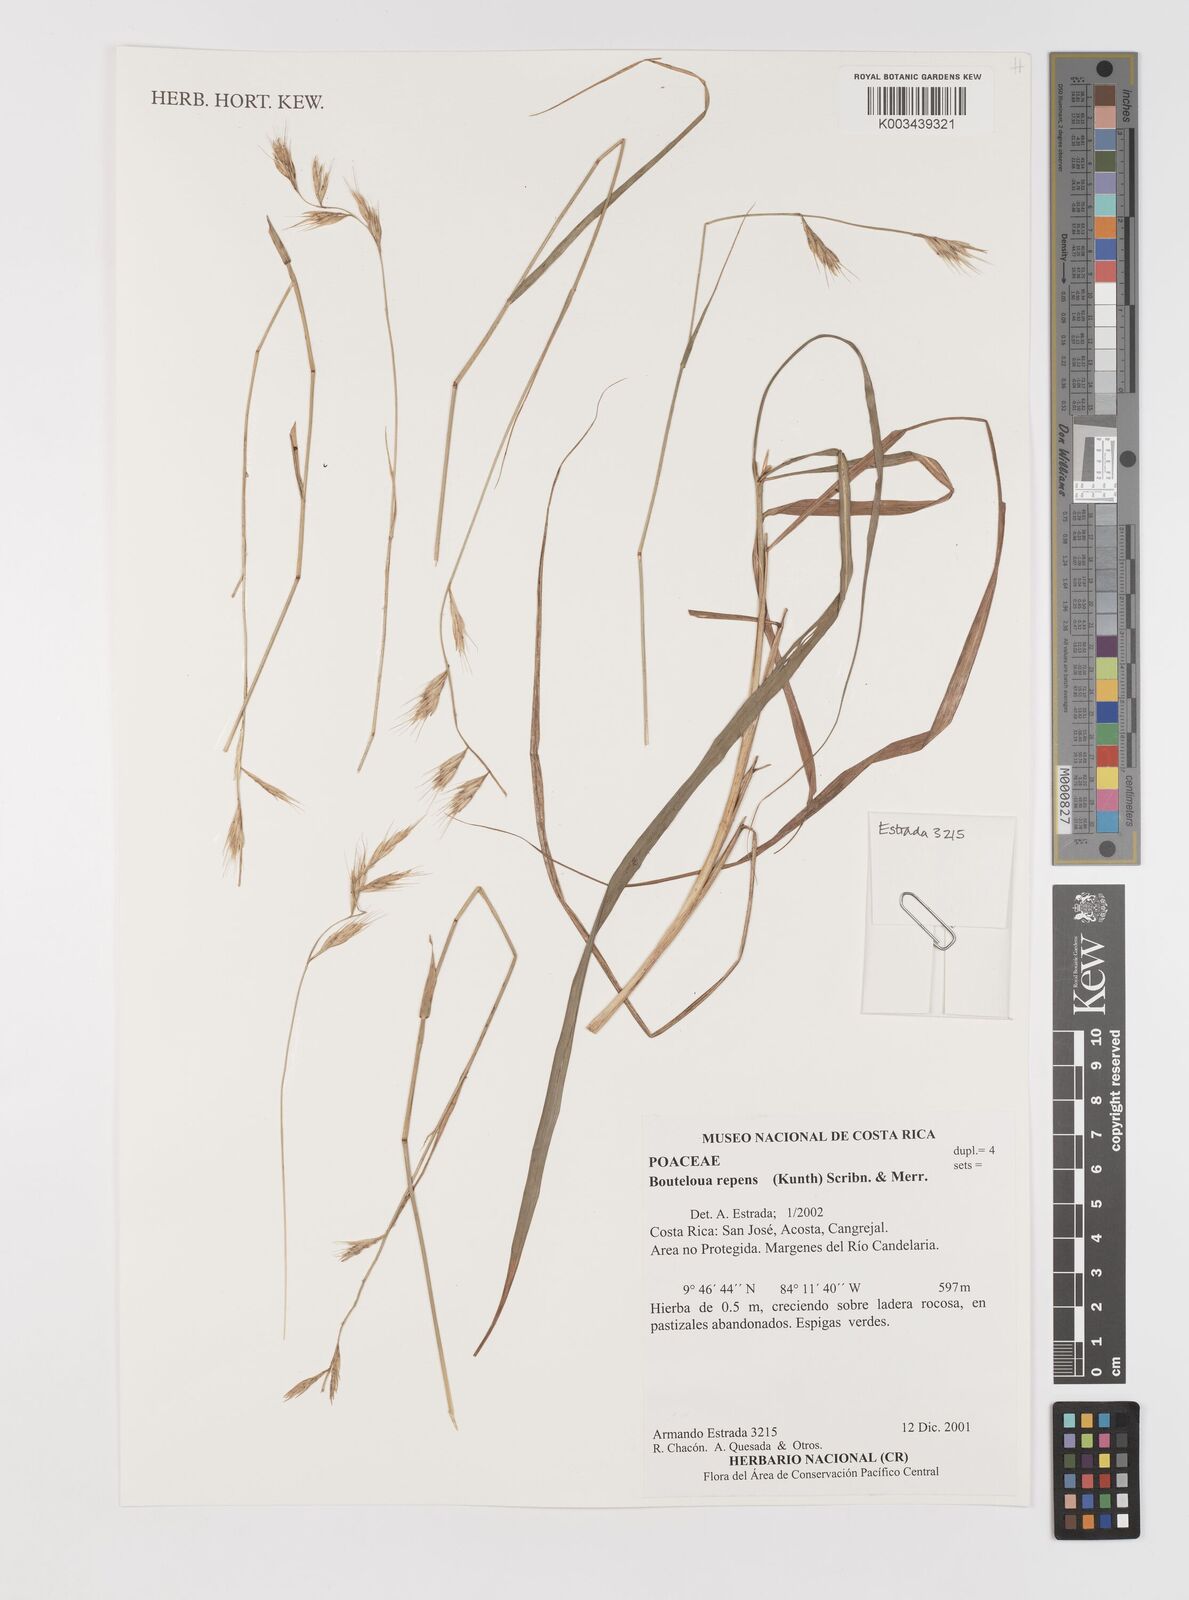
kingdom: Plantae
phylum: Tracheophyta
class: Liliopsida
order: Poales
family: Poaceae
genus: Bouteloua
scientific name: Bouteloua repens
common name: Slender grama
